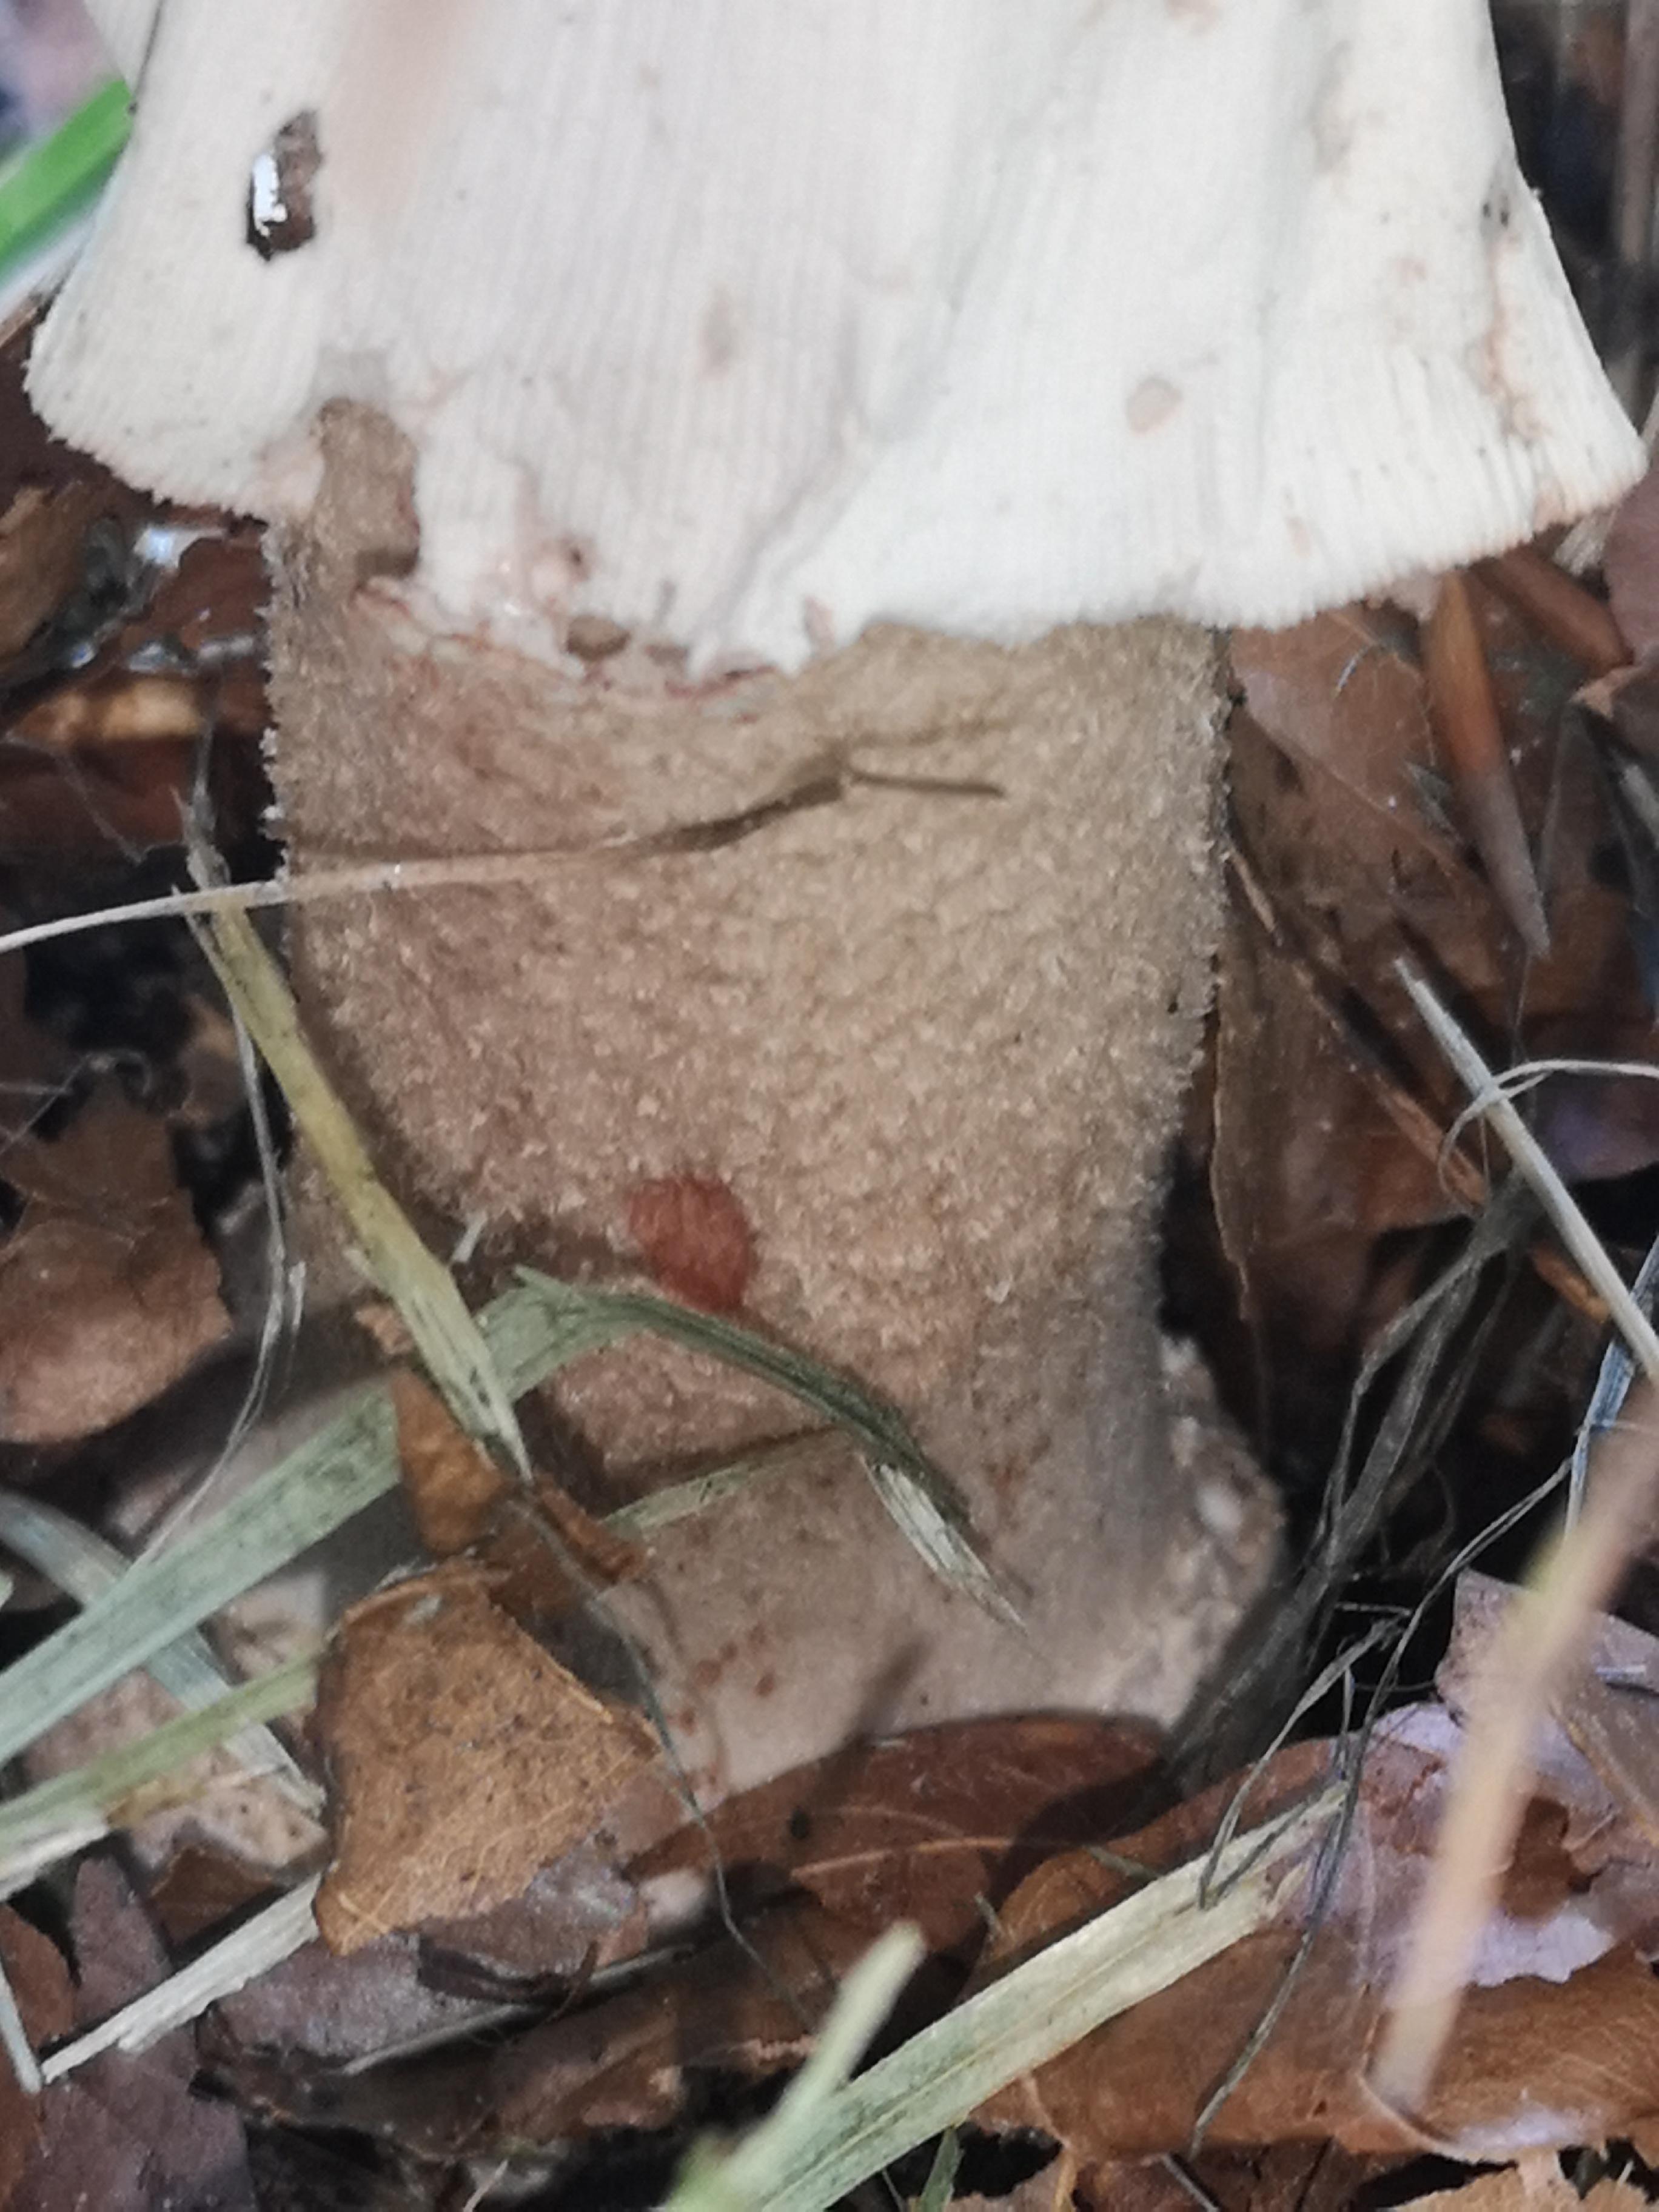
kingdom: Fungi
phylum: Basidiomycota
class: Agaricomycetes
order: Agaricales
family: Amanitaceae
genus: Amanita
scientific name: Amanita rubescens
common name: rødmende fluesvamp
